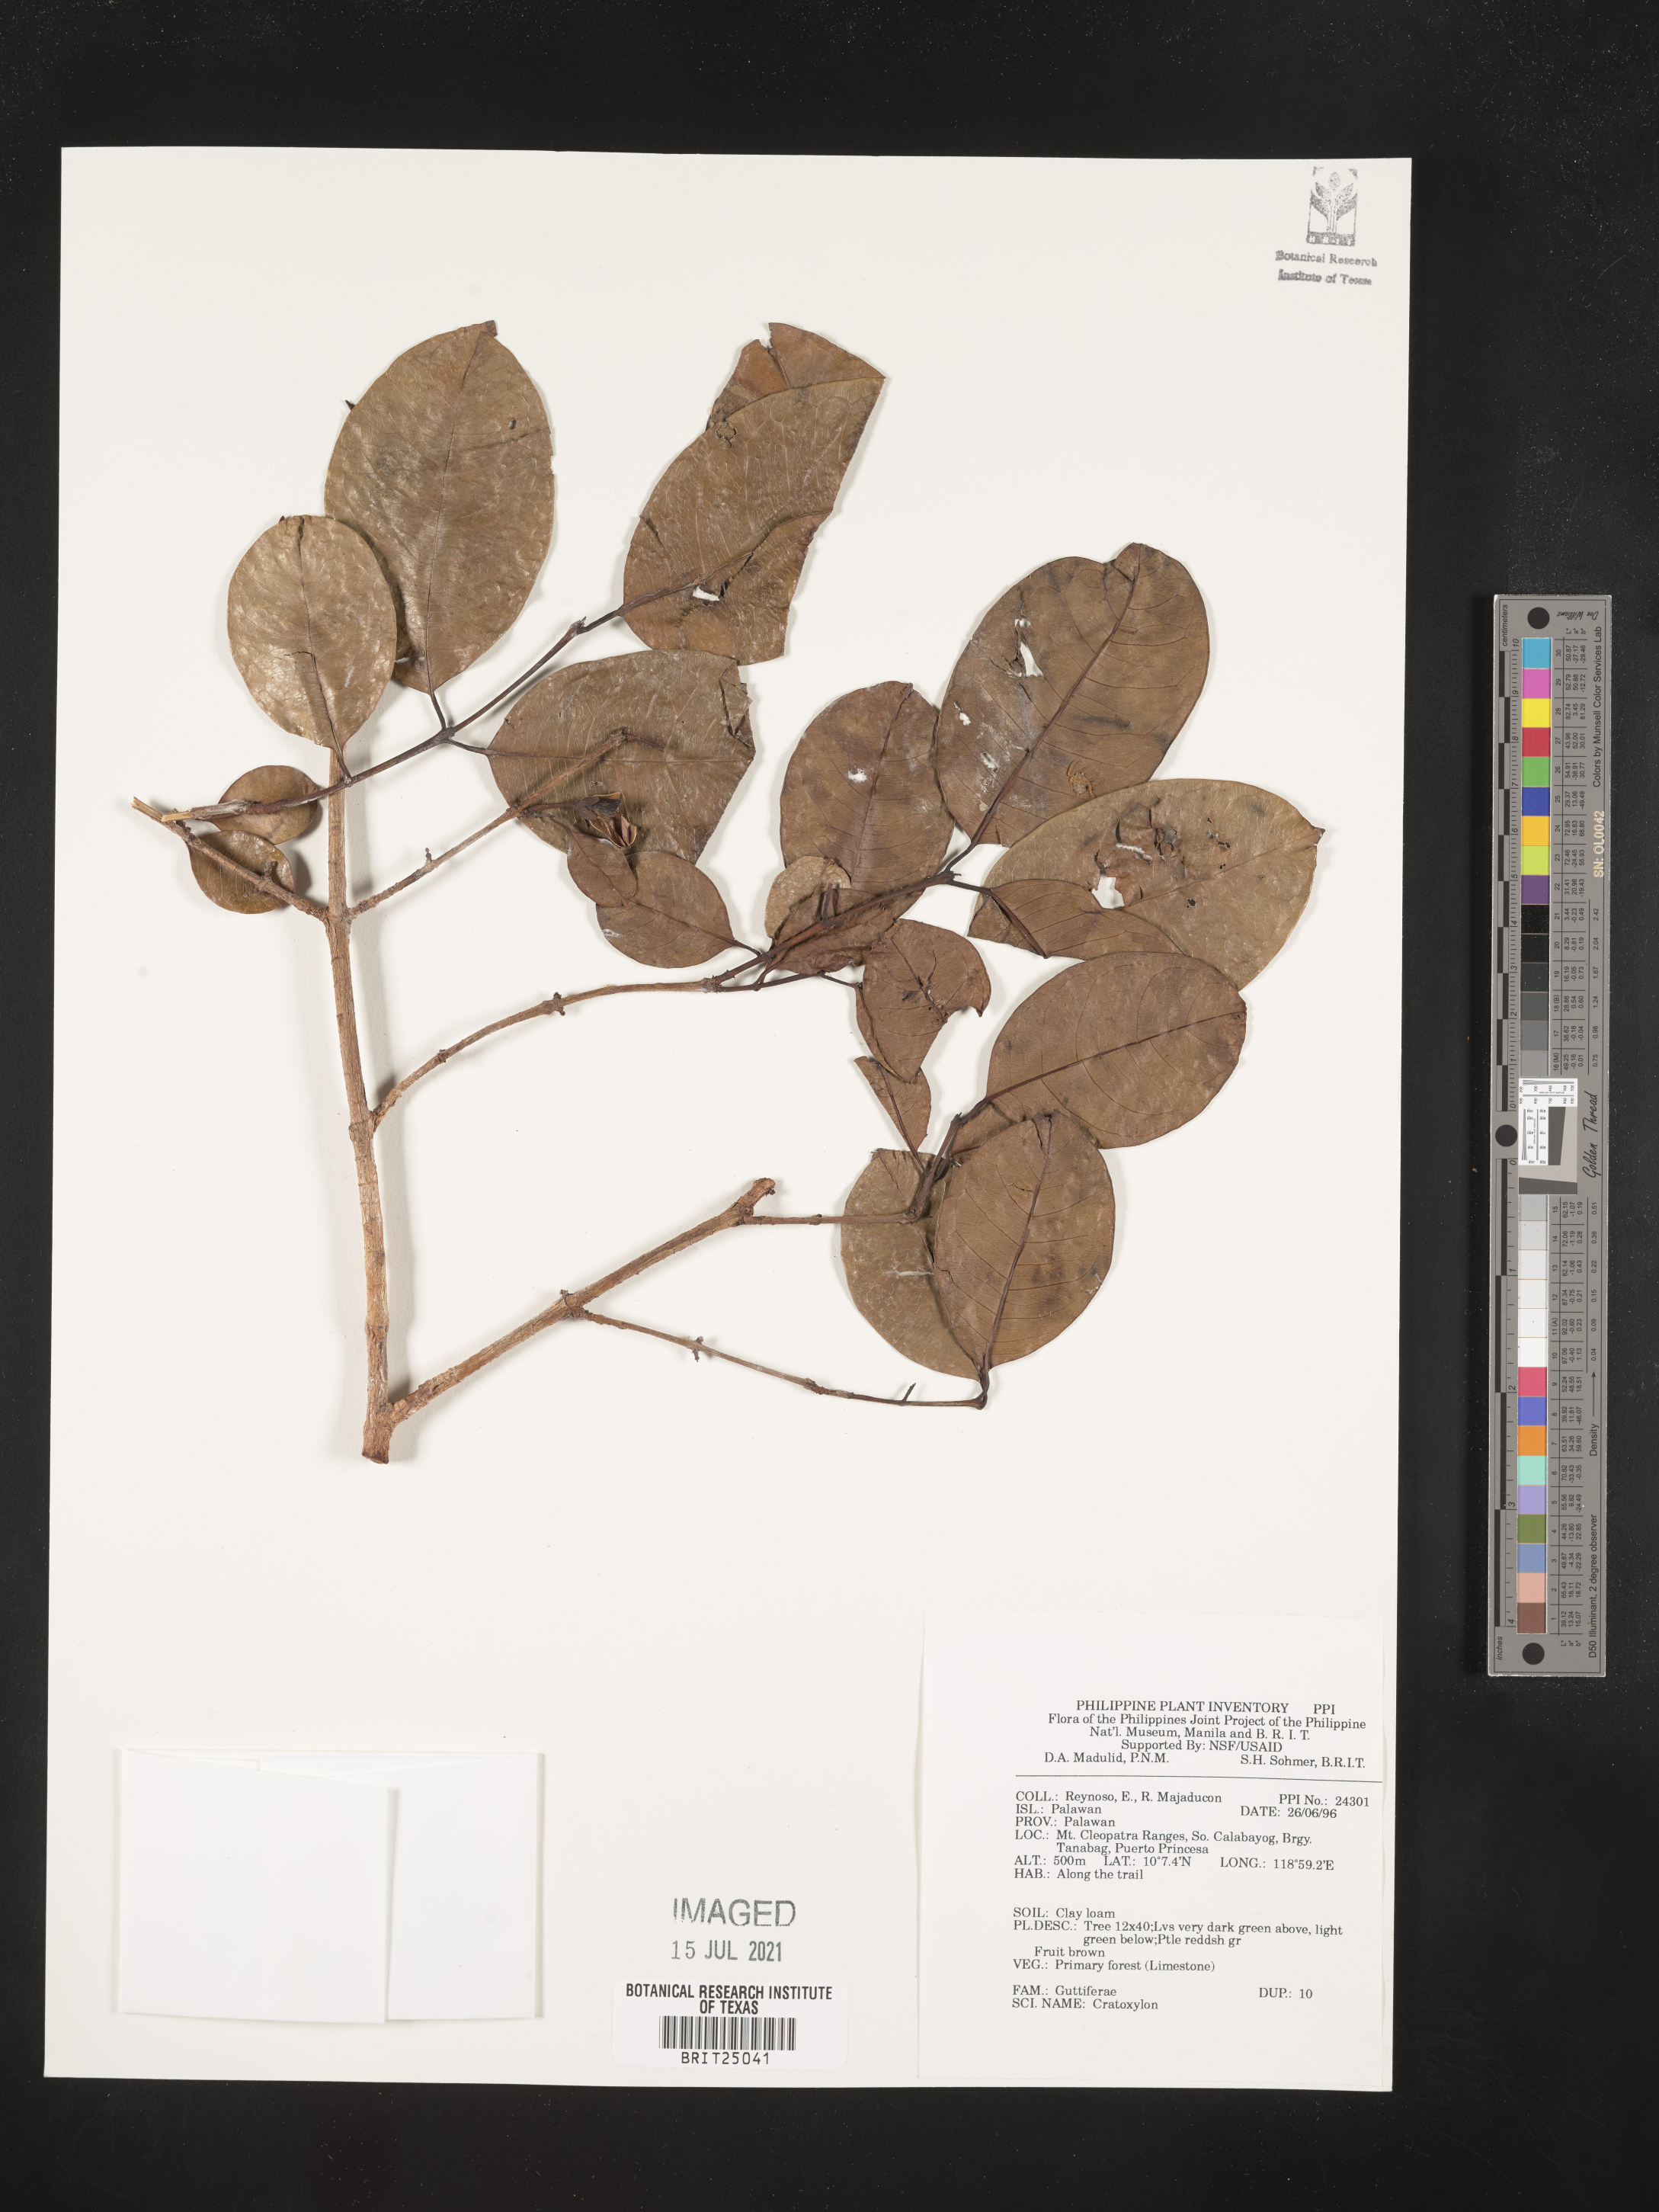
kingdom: Plantae
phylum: Tracheophyta
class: Magnoliopsida
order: Malpighiales
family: Hypericaceae
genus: Cratoxylum
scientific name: Cratoxylum
